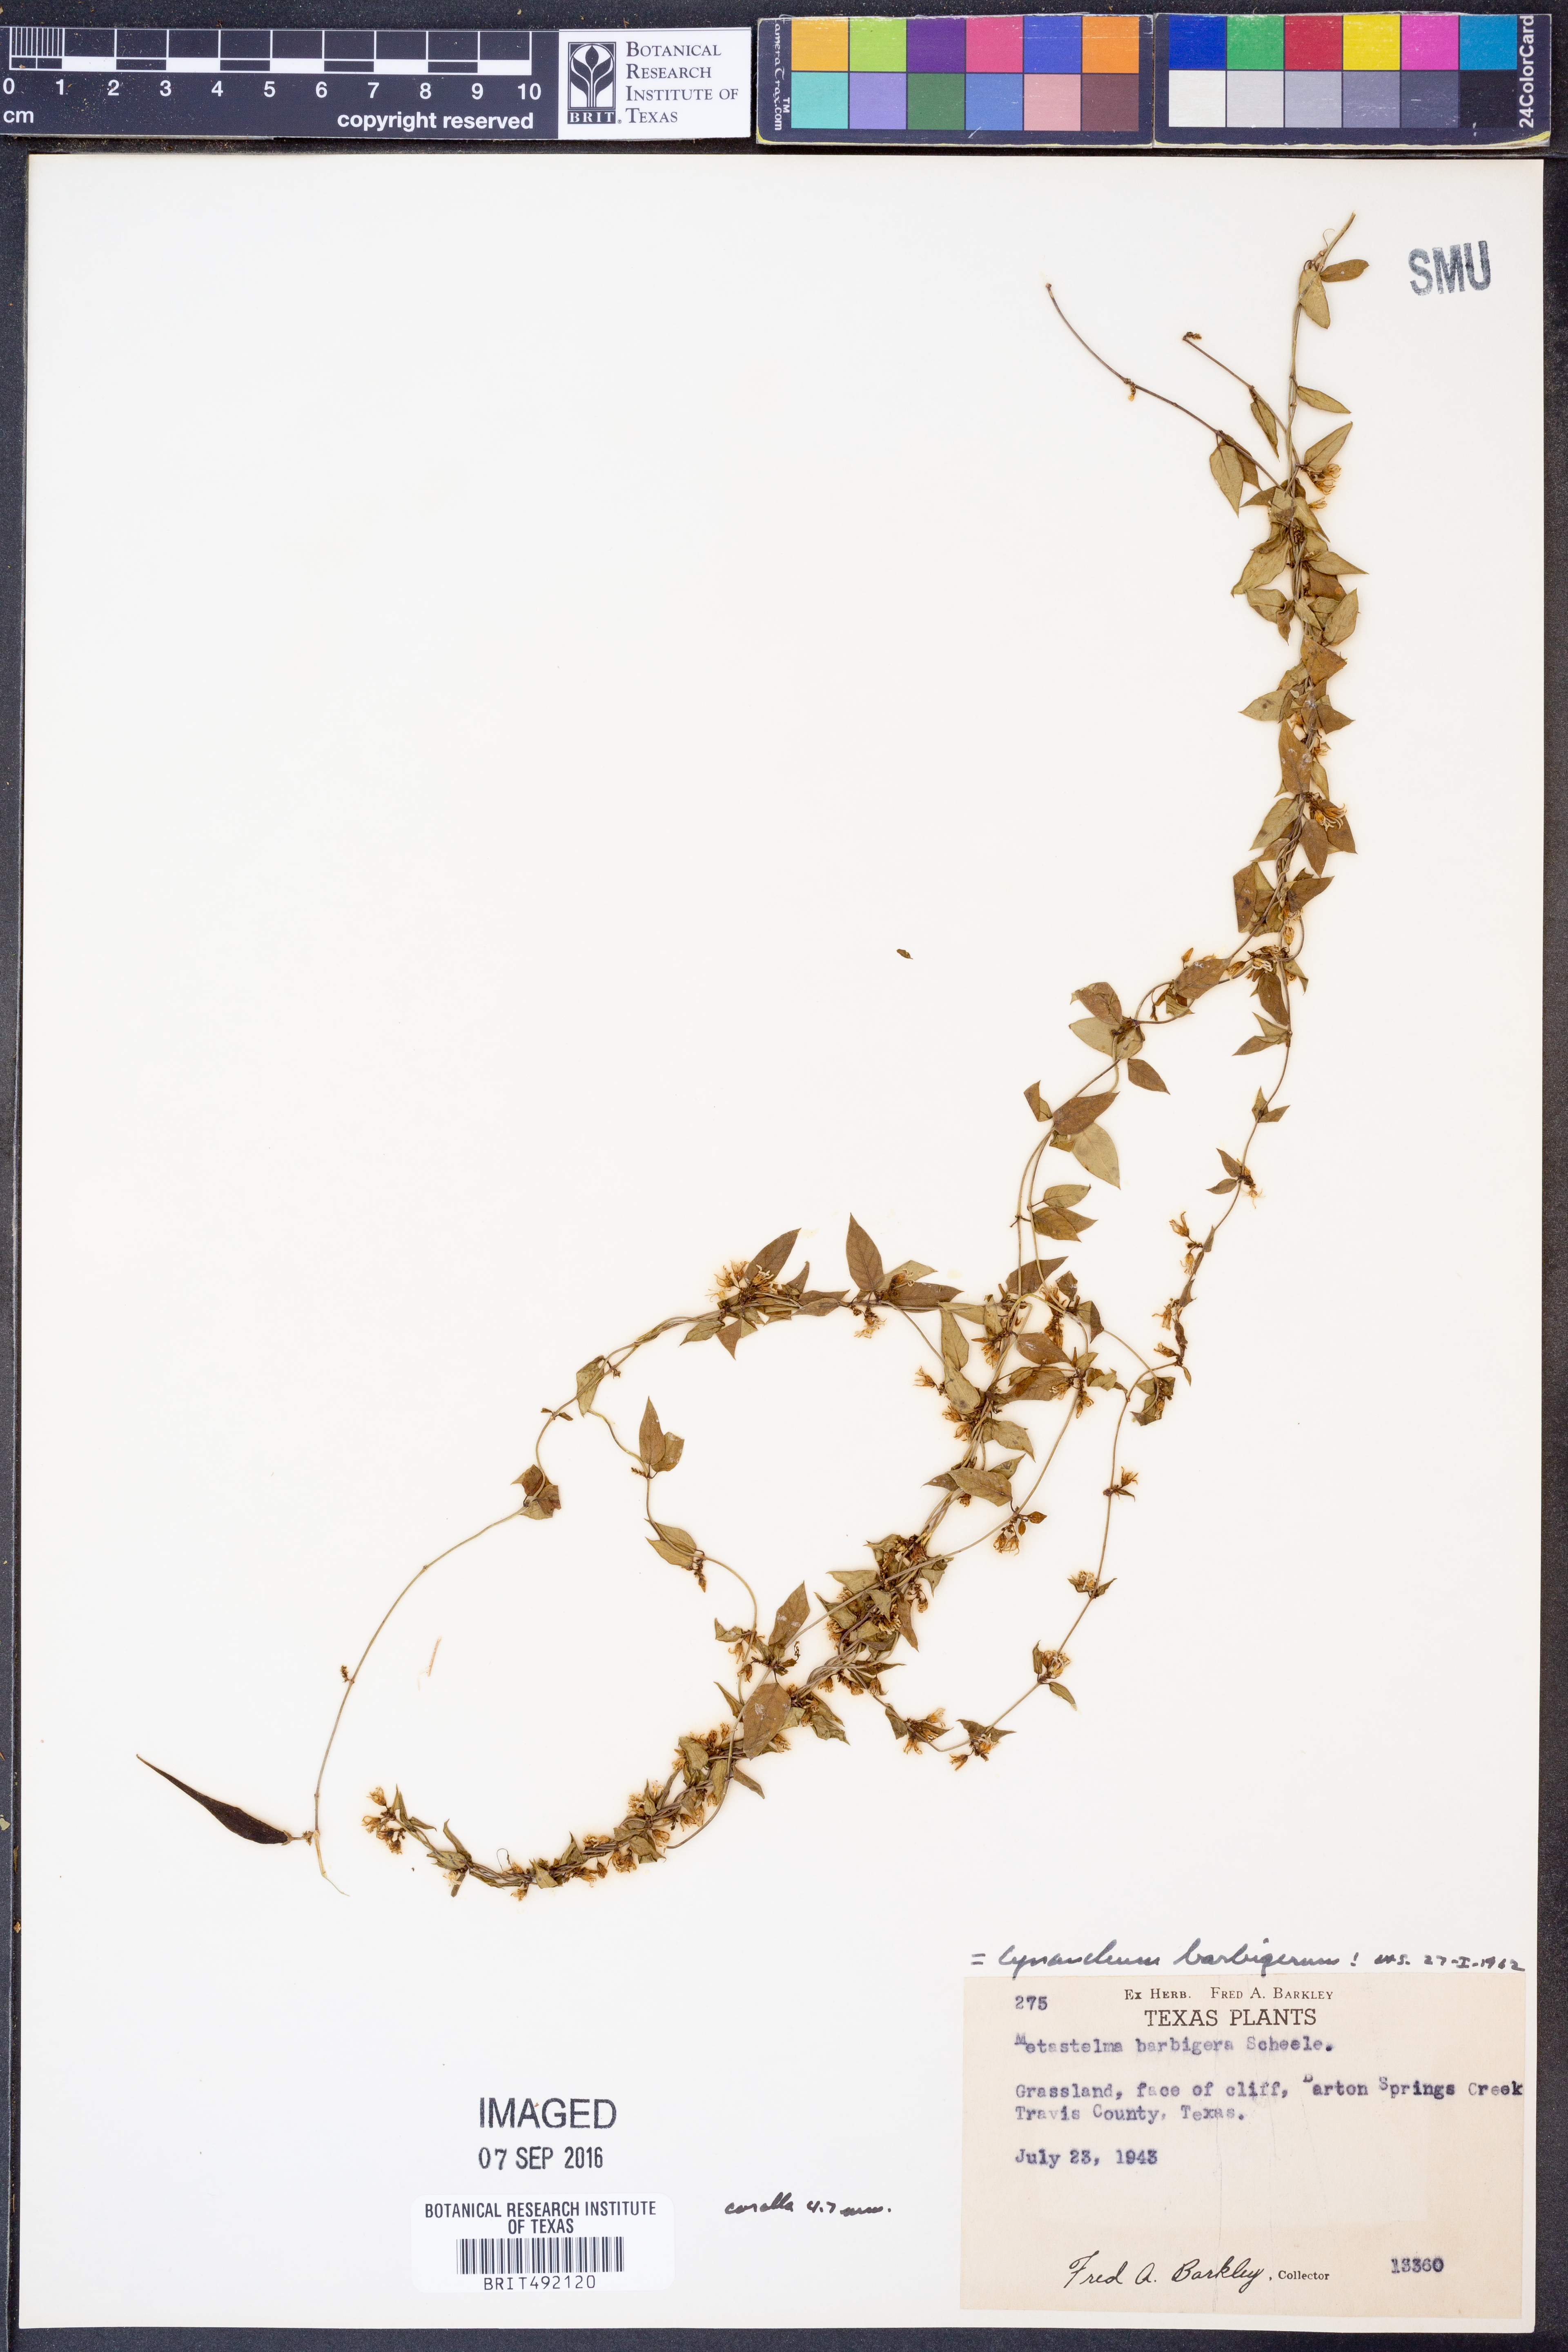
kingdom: Plantae
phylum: Tracheophyta
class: Magnoliopsida
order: Gentianales
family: Apocynaceae
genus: Metastelma
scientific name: Metastelma barbigerum
